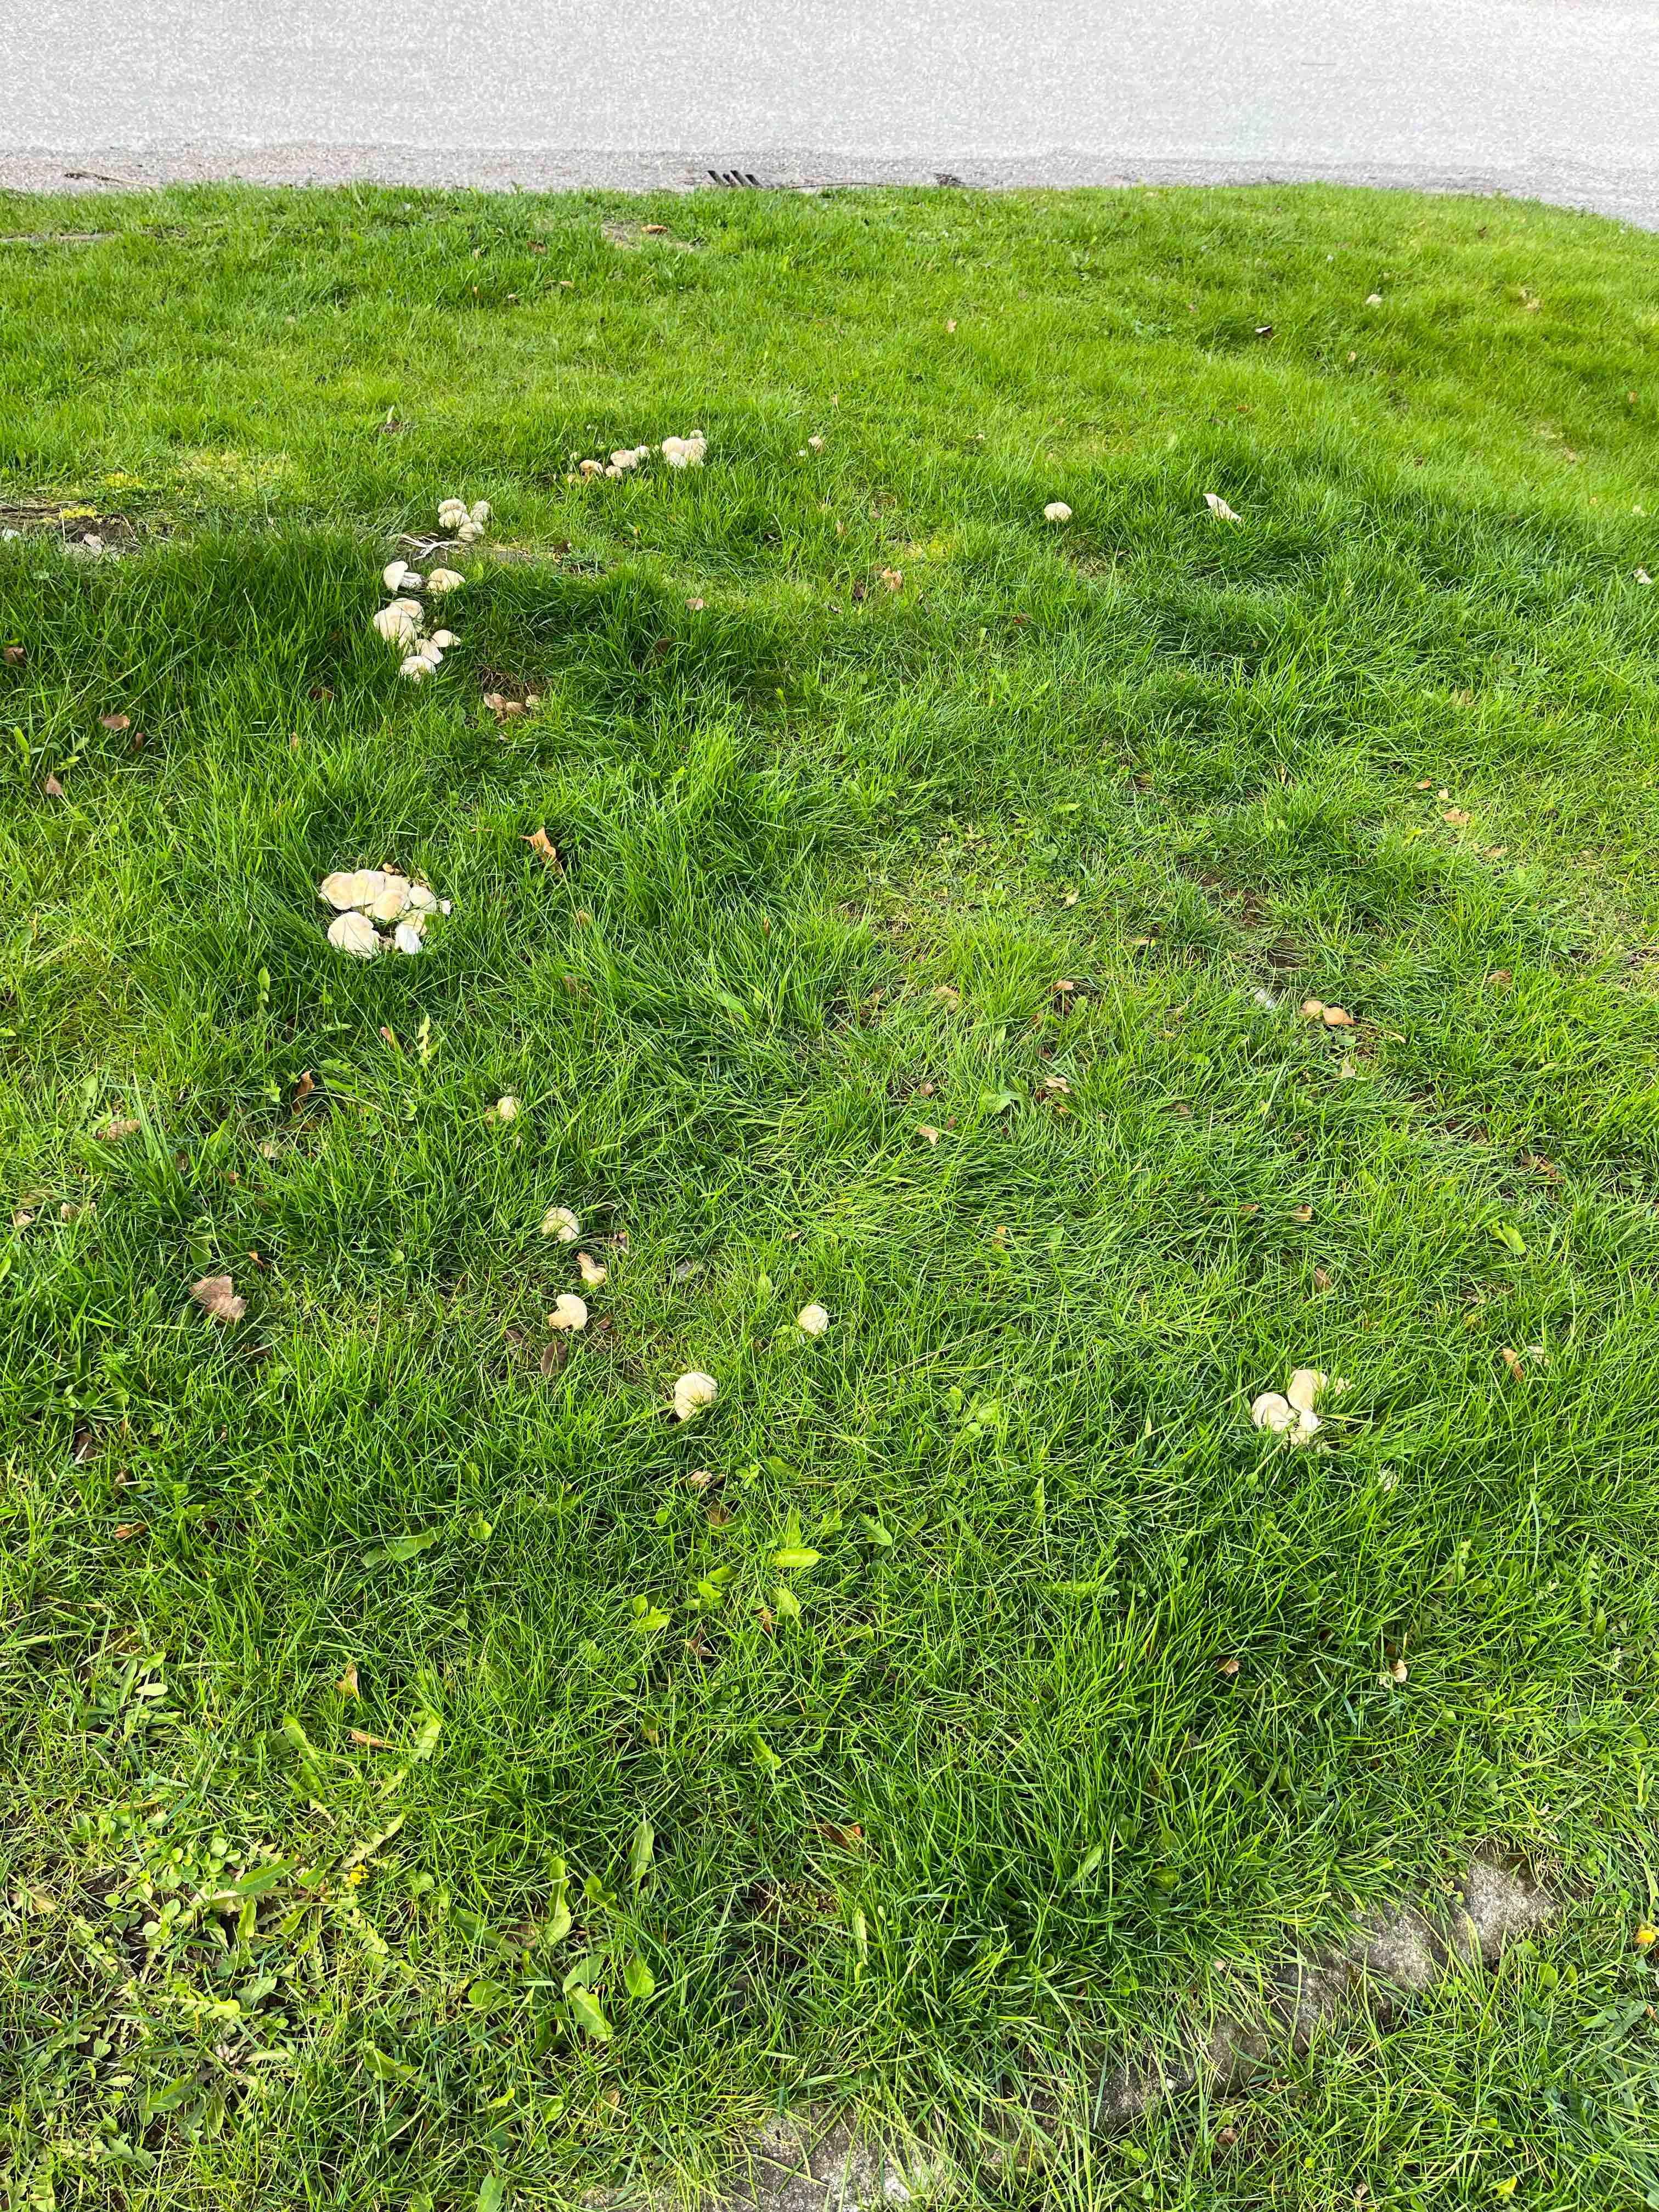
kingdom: Fungi
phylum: Basidiomycota
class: Agaricomycetes
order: Agaricales
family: Lyophyllaceae
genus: Calocybe
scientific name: Calocybe gambosa
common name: vårmusseron
